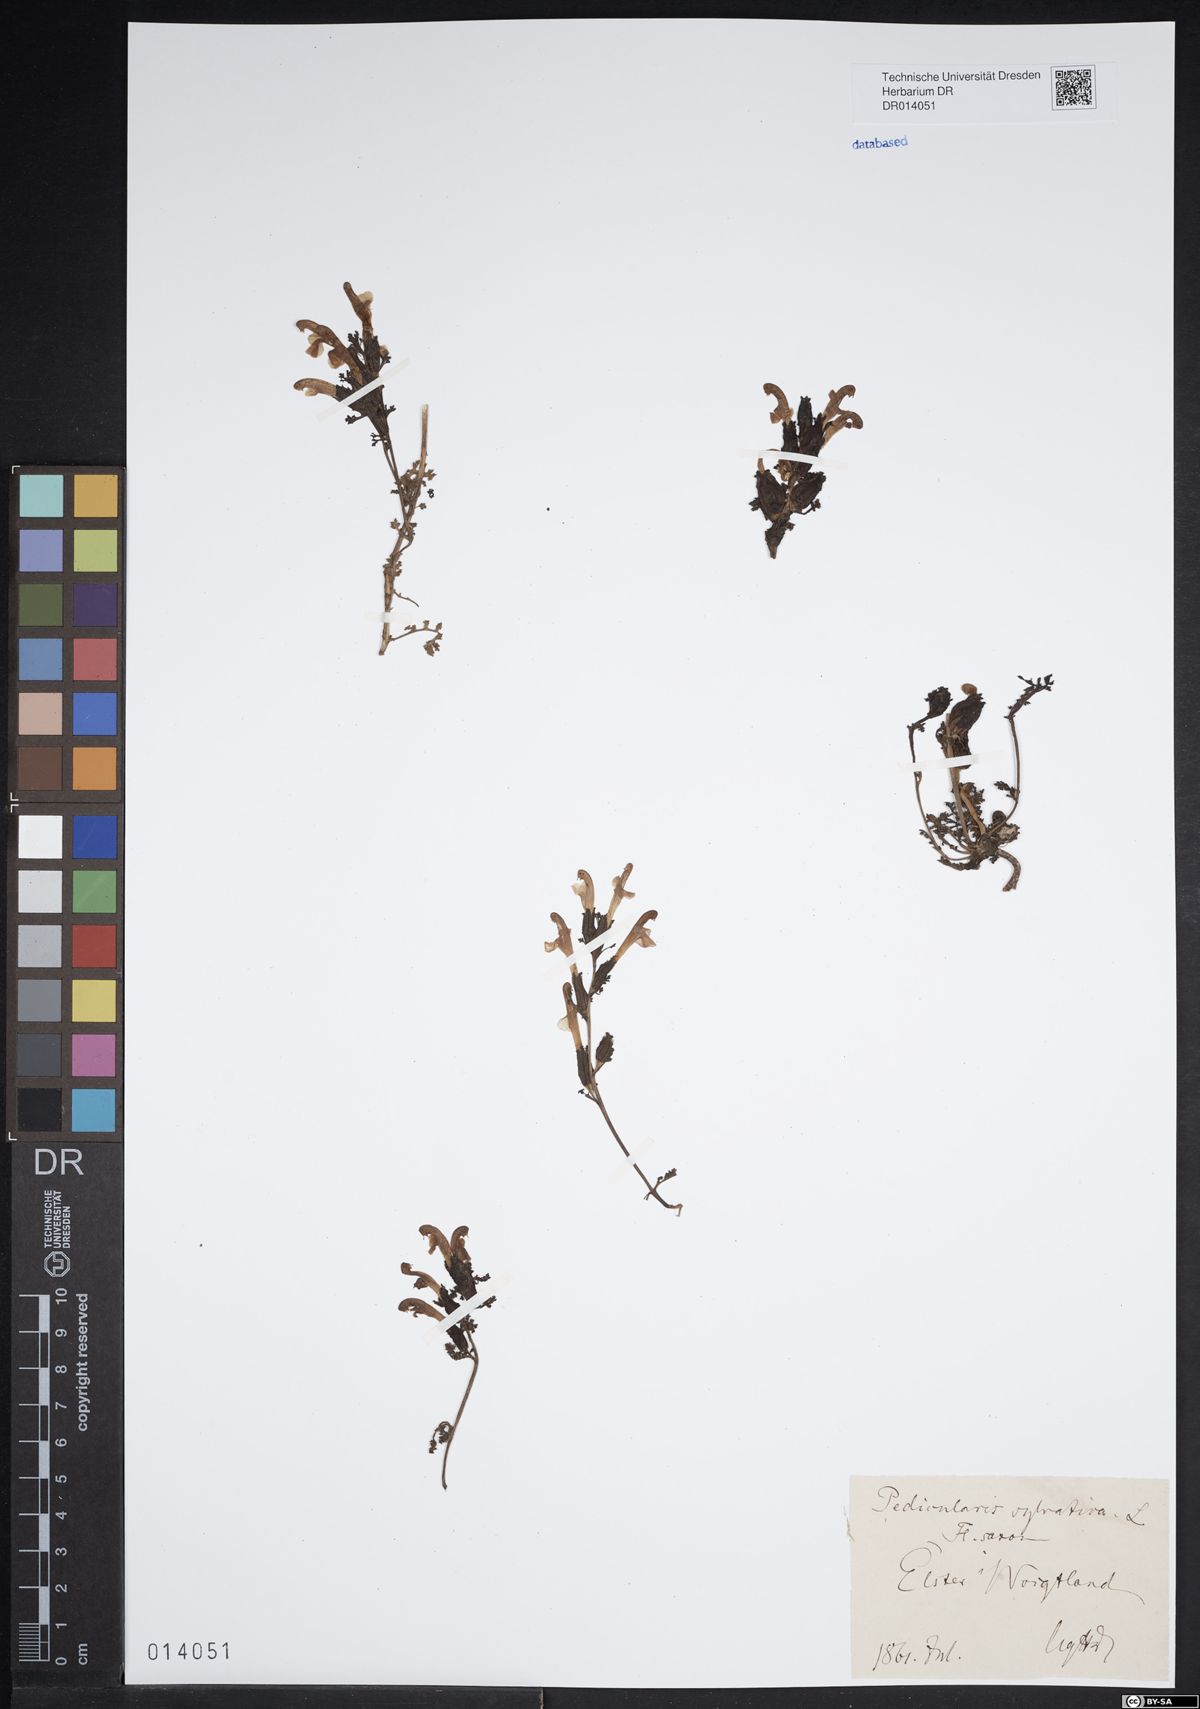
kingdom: Plantae
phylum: Tracheophyta
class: Magnoliopsida
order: Lamiales
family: Orobanchaceae
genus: Pedicularis
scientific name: Pedicularis sylvatica
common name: Lousewort
